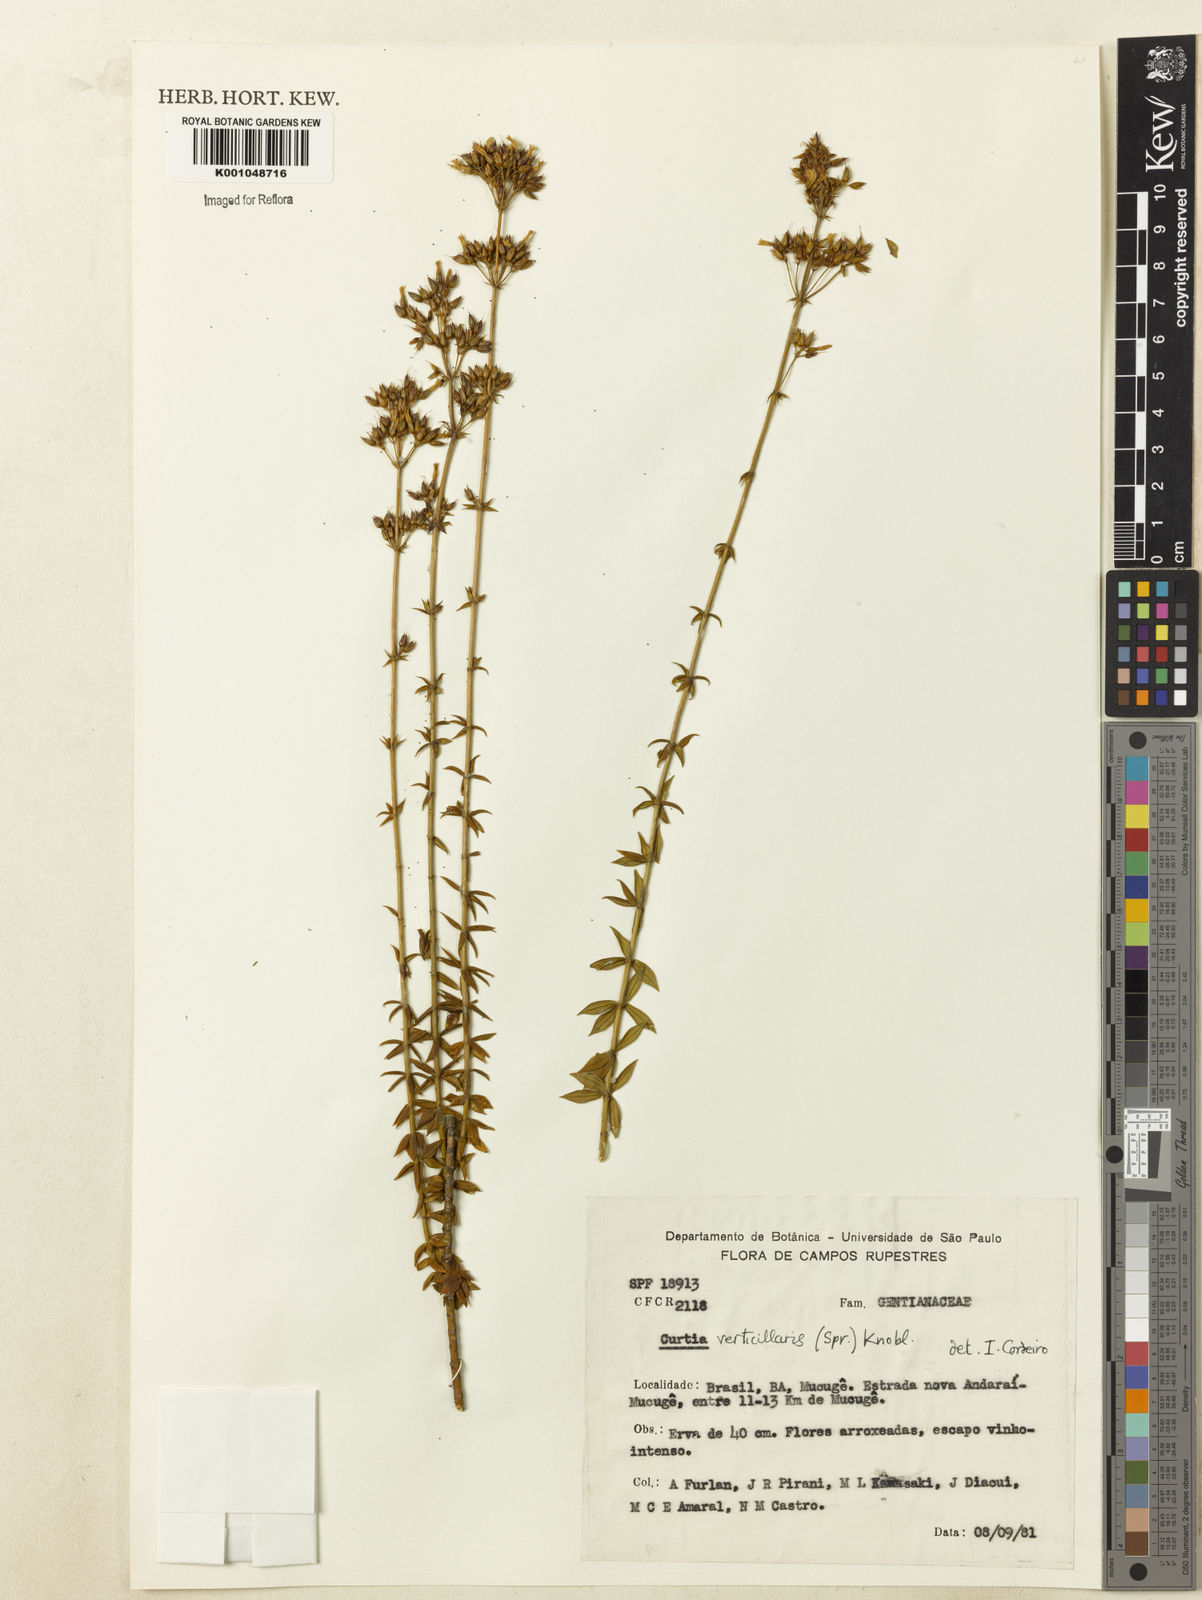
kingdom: Plantae
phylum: Tracheophyta
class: Magnoliopsida
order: Gentianales
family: Gentianaceae
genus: Curtia
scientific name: Curtia verticillaris
